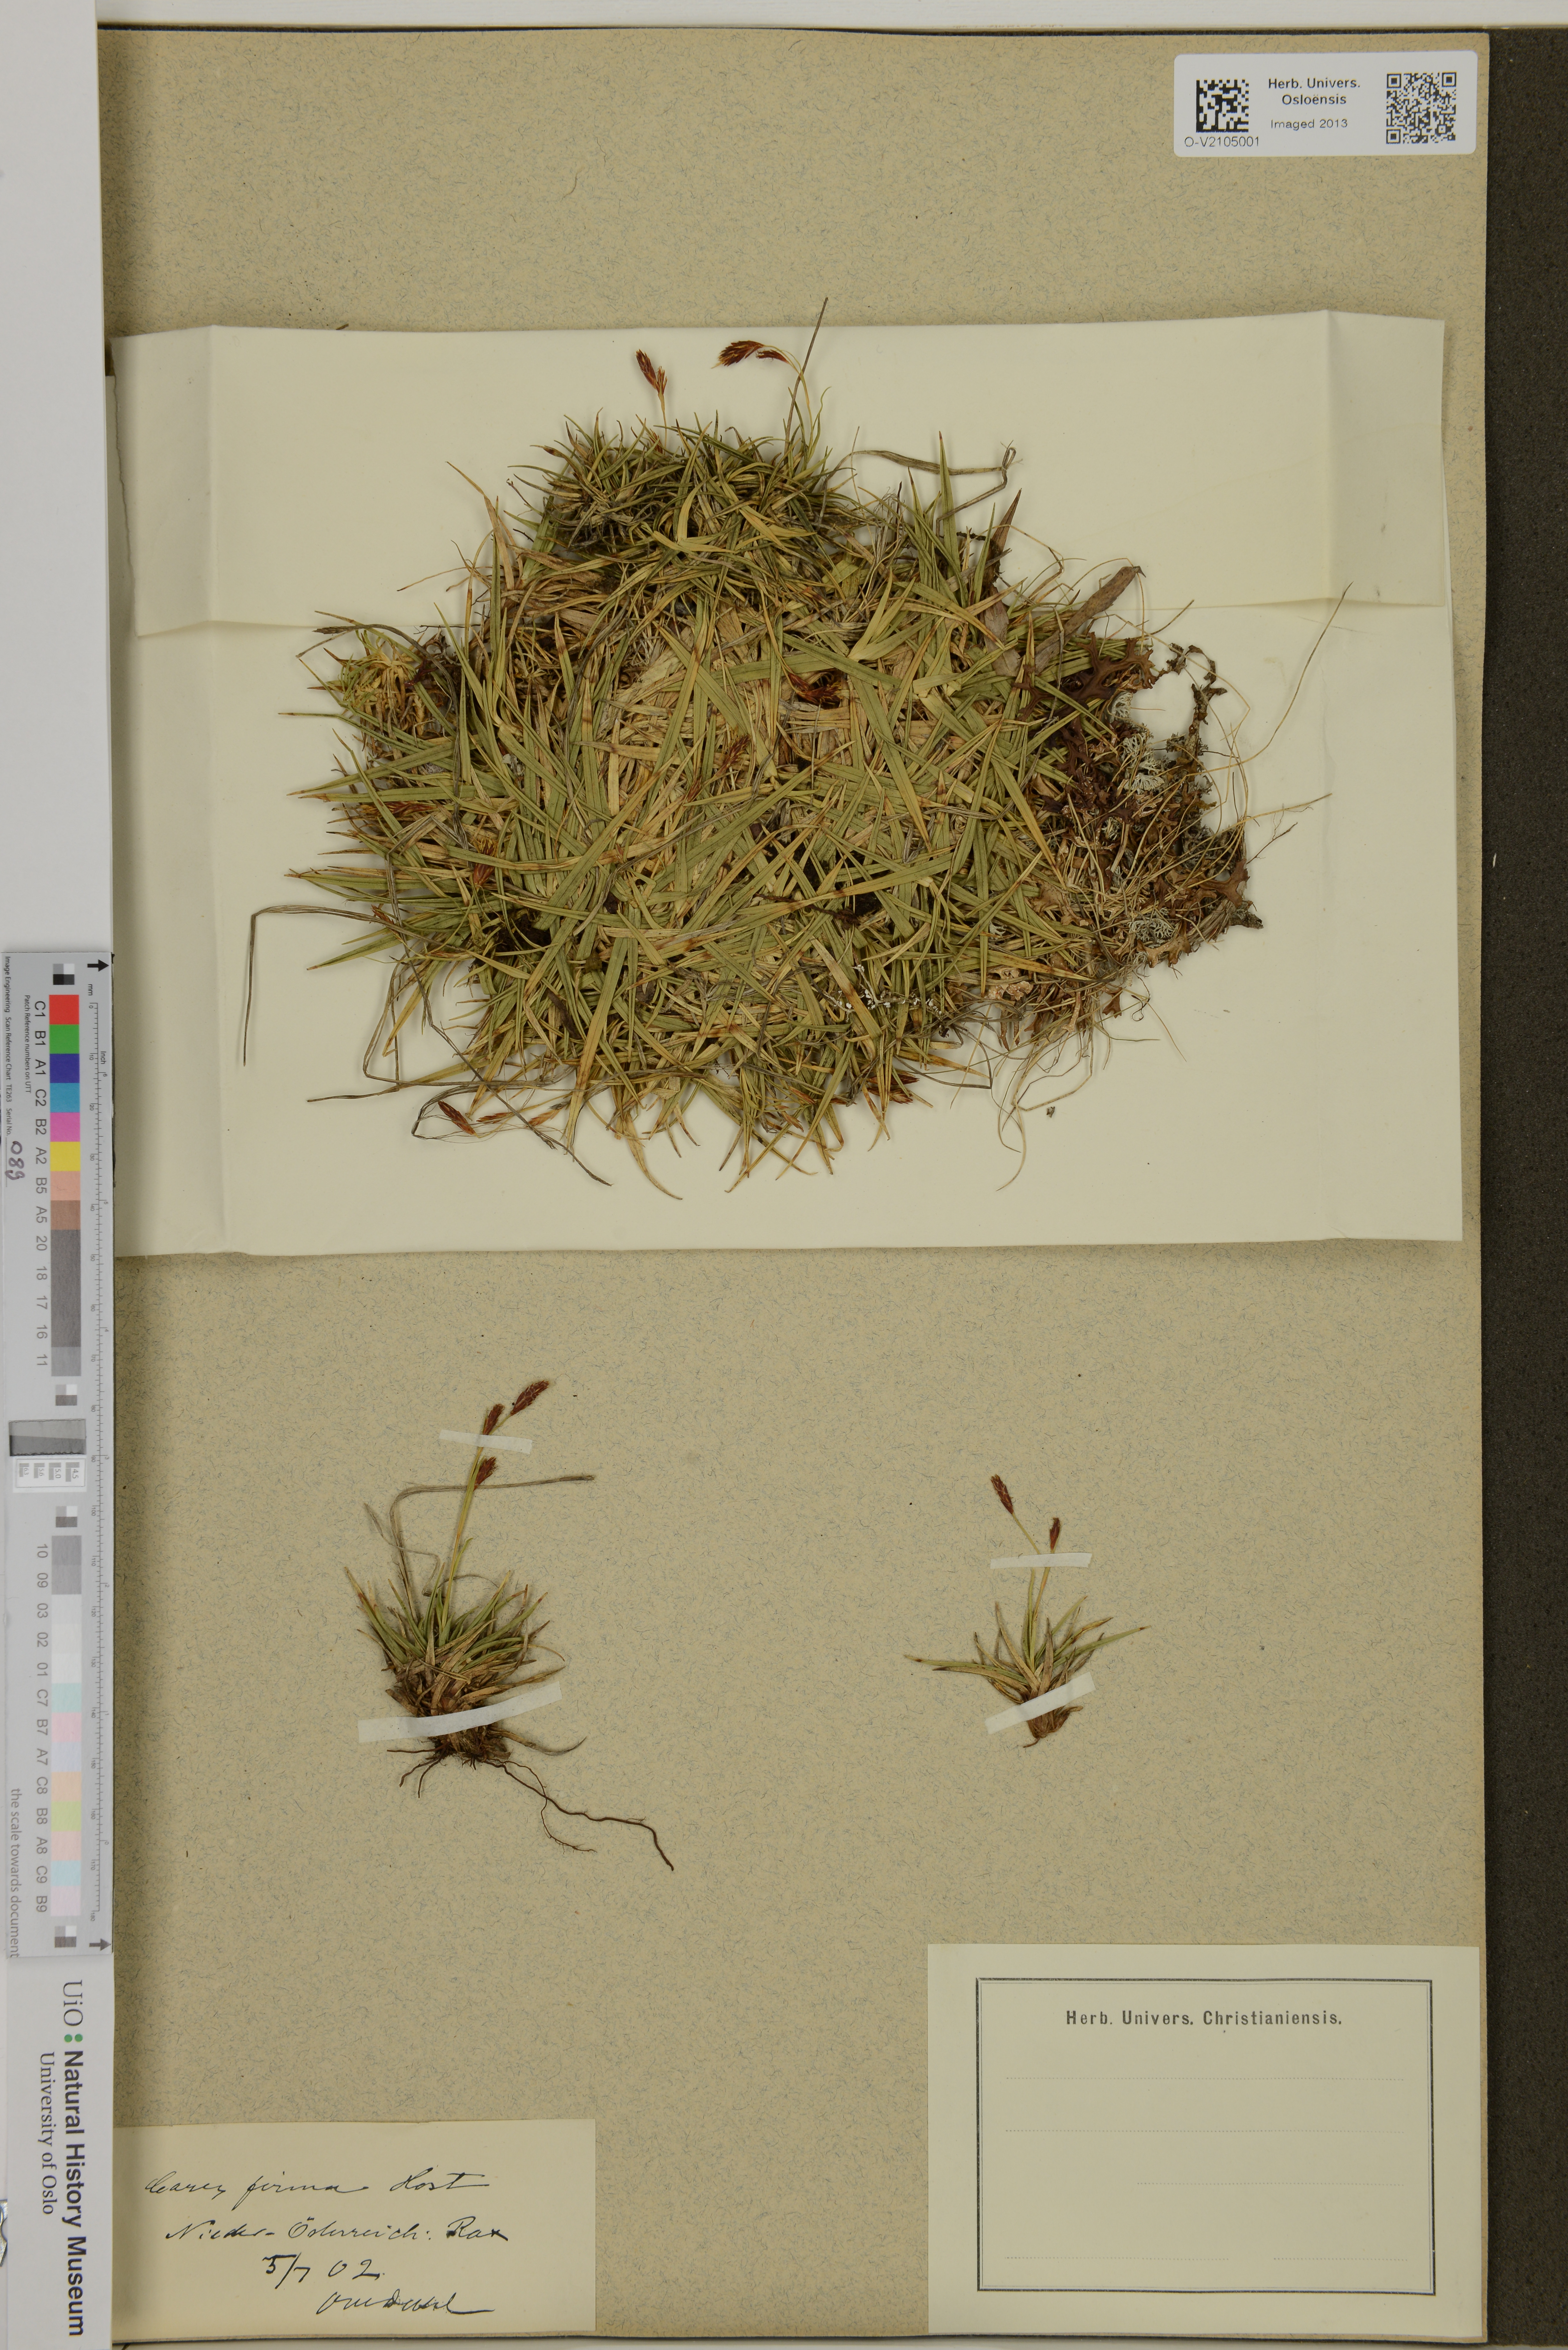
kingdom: Plantae
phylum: Tracheophyta
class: Liliopsida
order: Poales
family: Cyperaceae
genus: Carex
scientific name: Carex firma
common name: Dwarf pillow sedge
